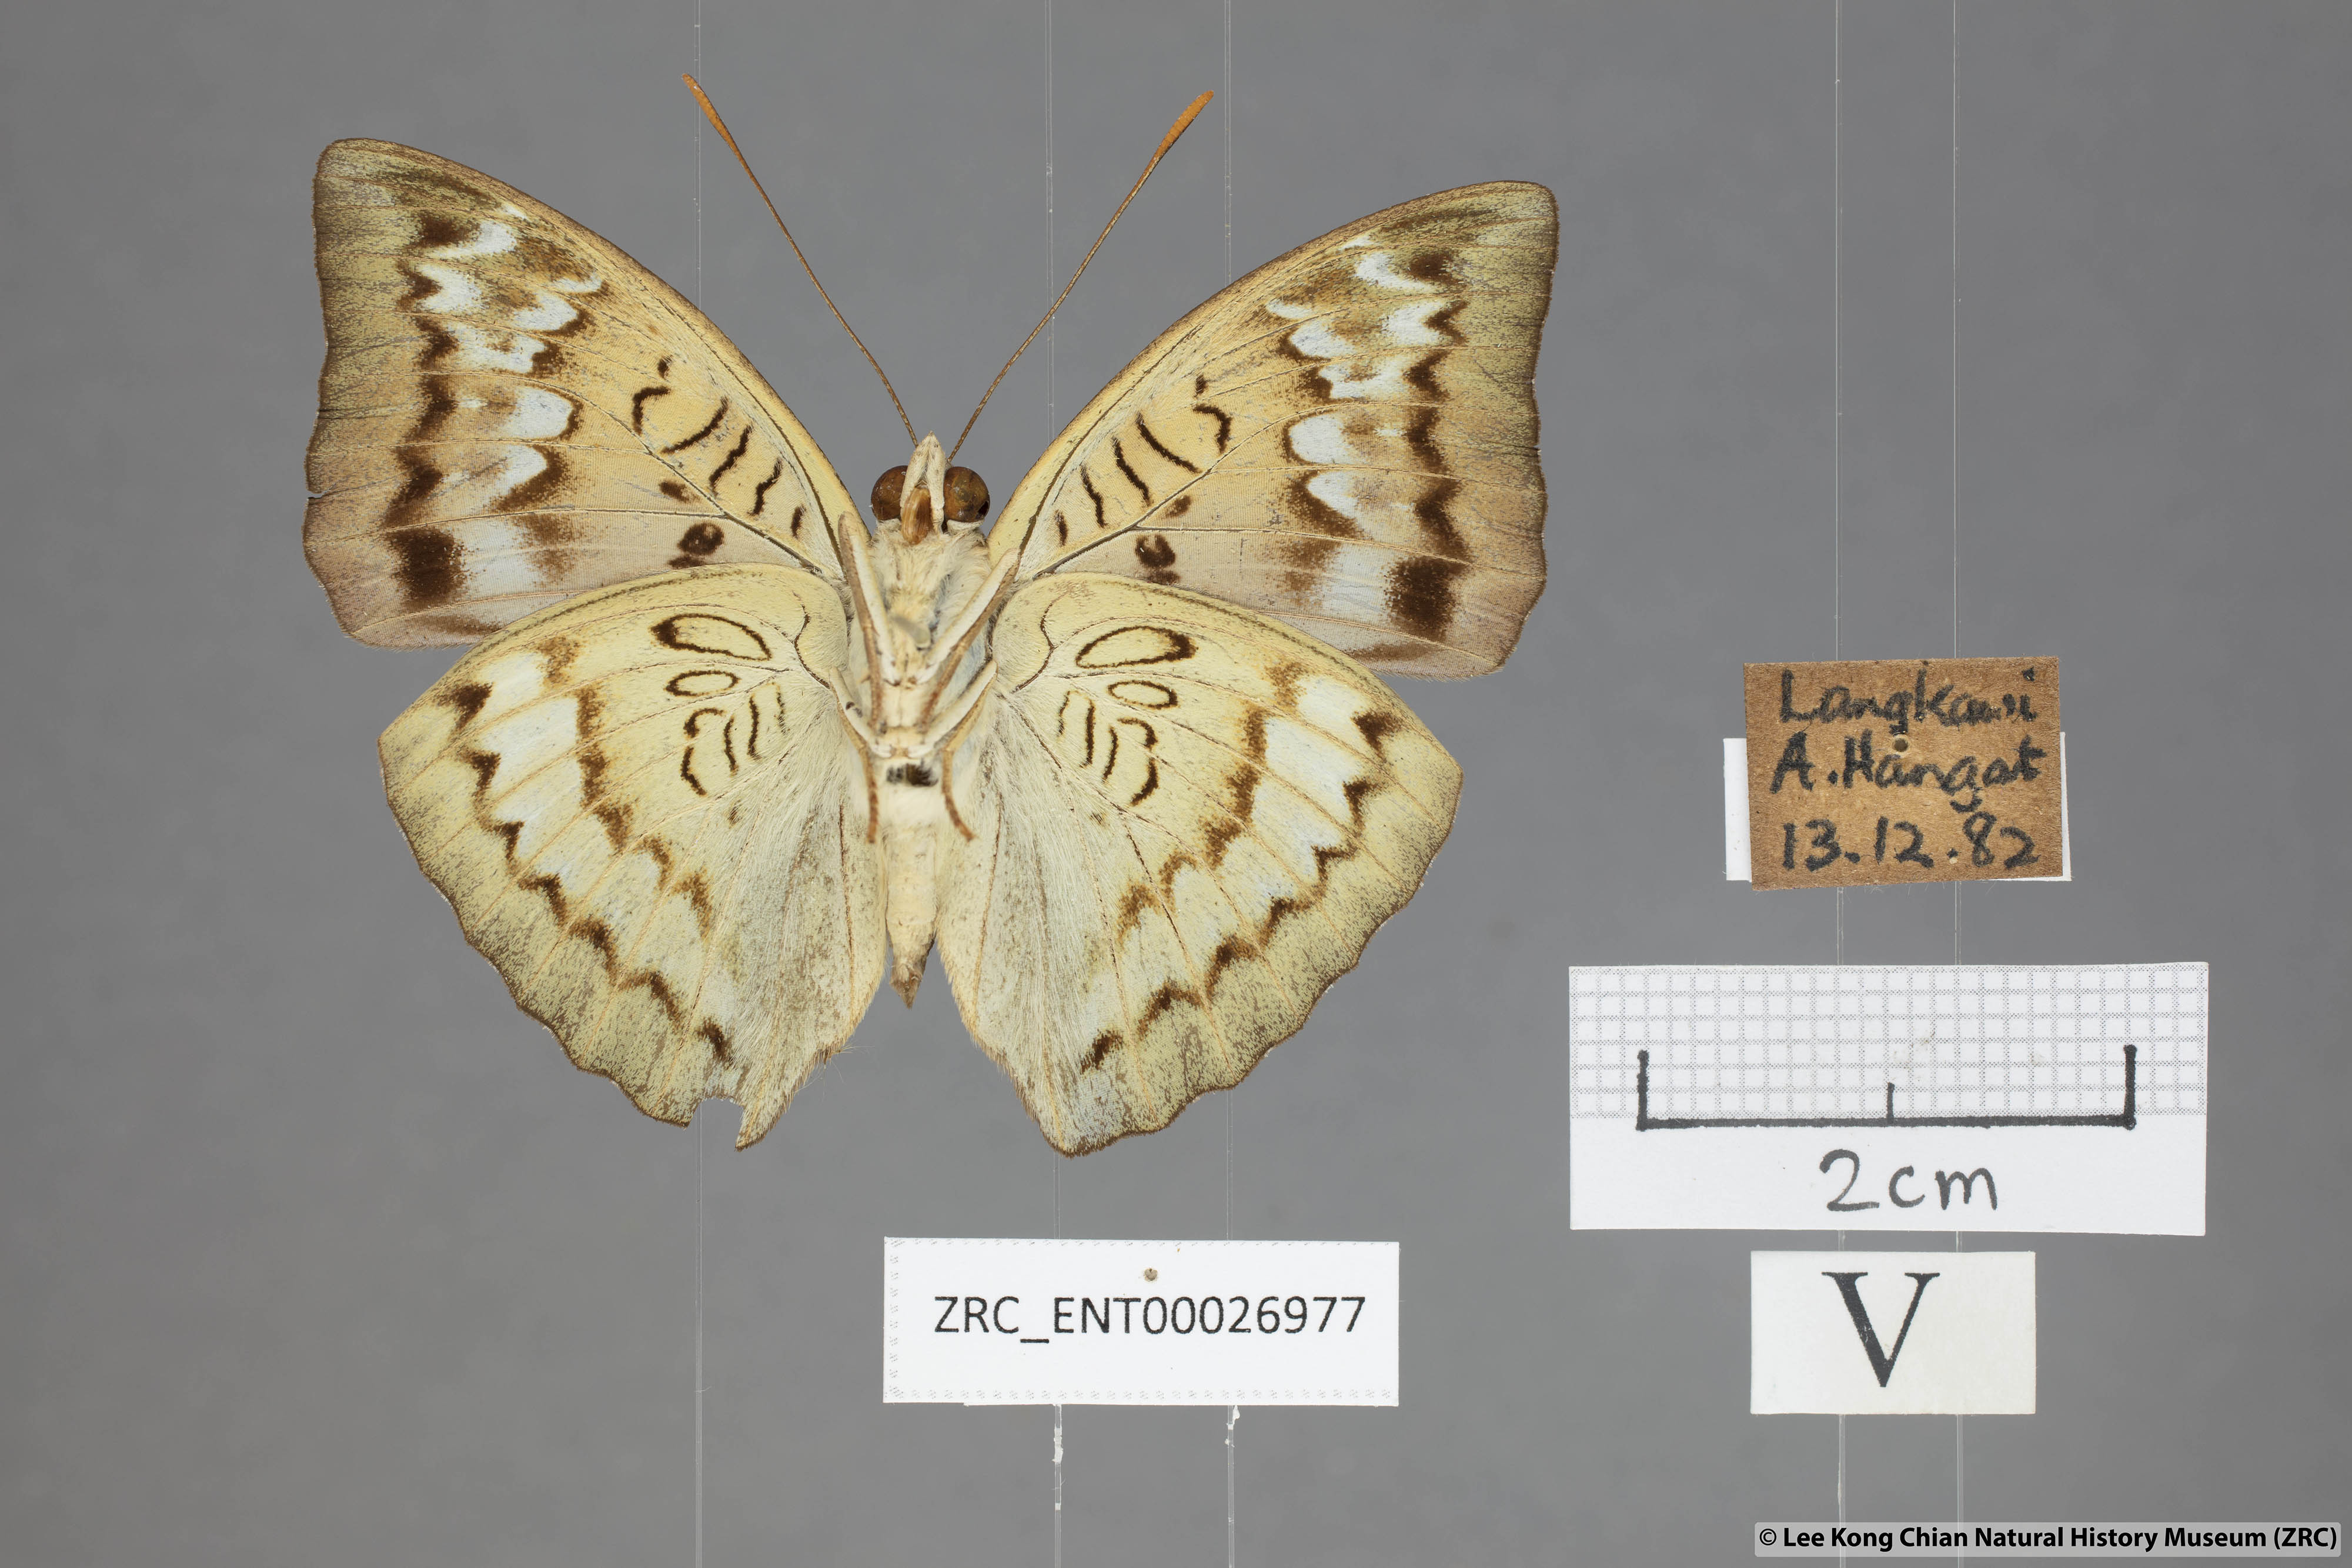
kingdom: Animalia
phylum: Arthropoda
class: Insecta
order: Lepidoptera
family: Nymphalidae
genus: Euthalia
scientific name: Euthalia monina
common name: Powdered baron
